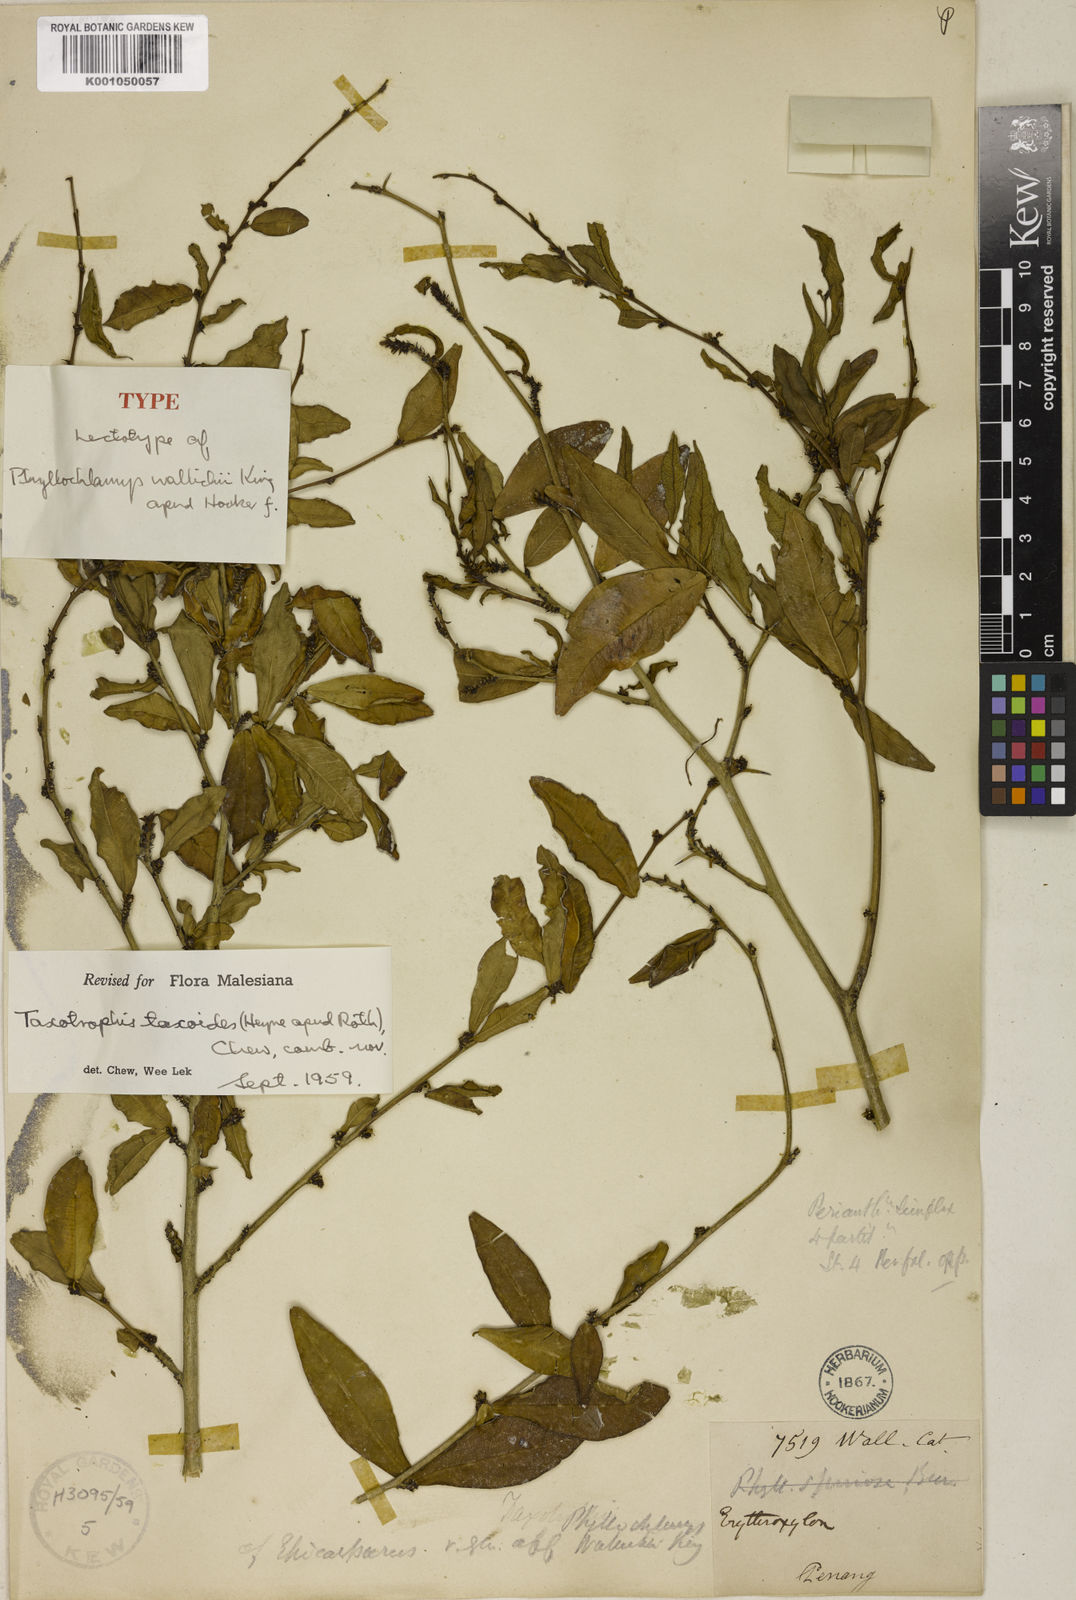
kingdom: Plantae
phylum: Tracheophyta
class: Magnoliopsida
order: Rosales
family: Moraceae
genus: Taxotrophis
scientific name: Taxotrophis taxoides
